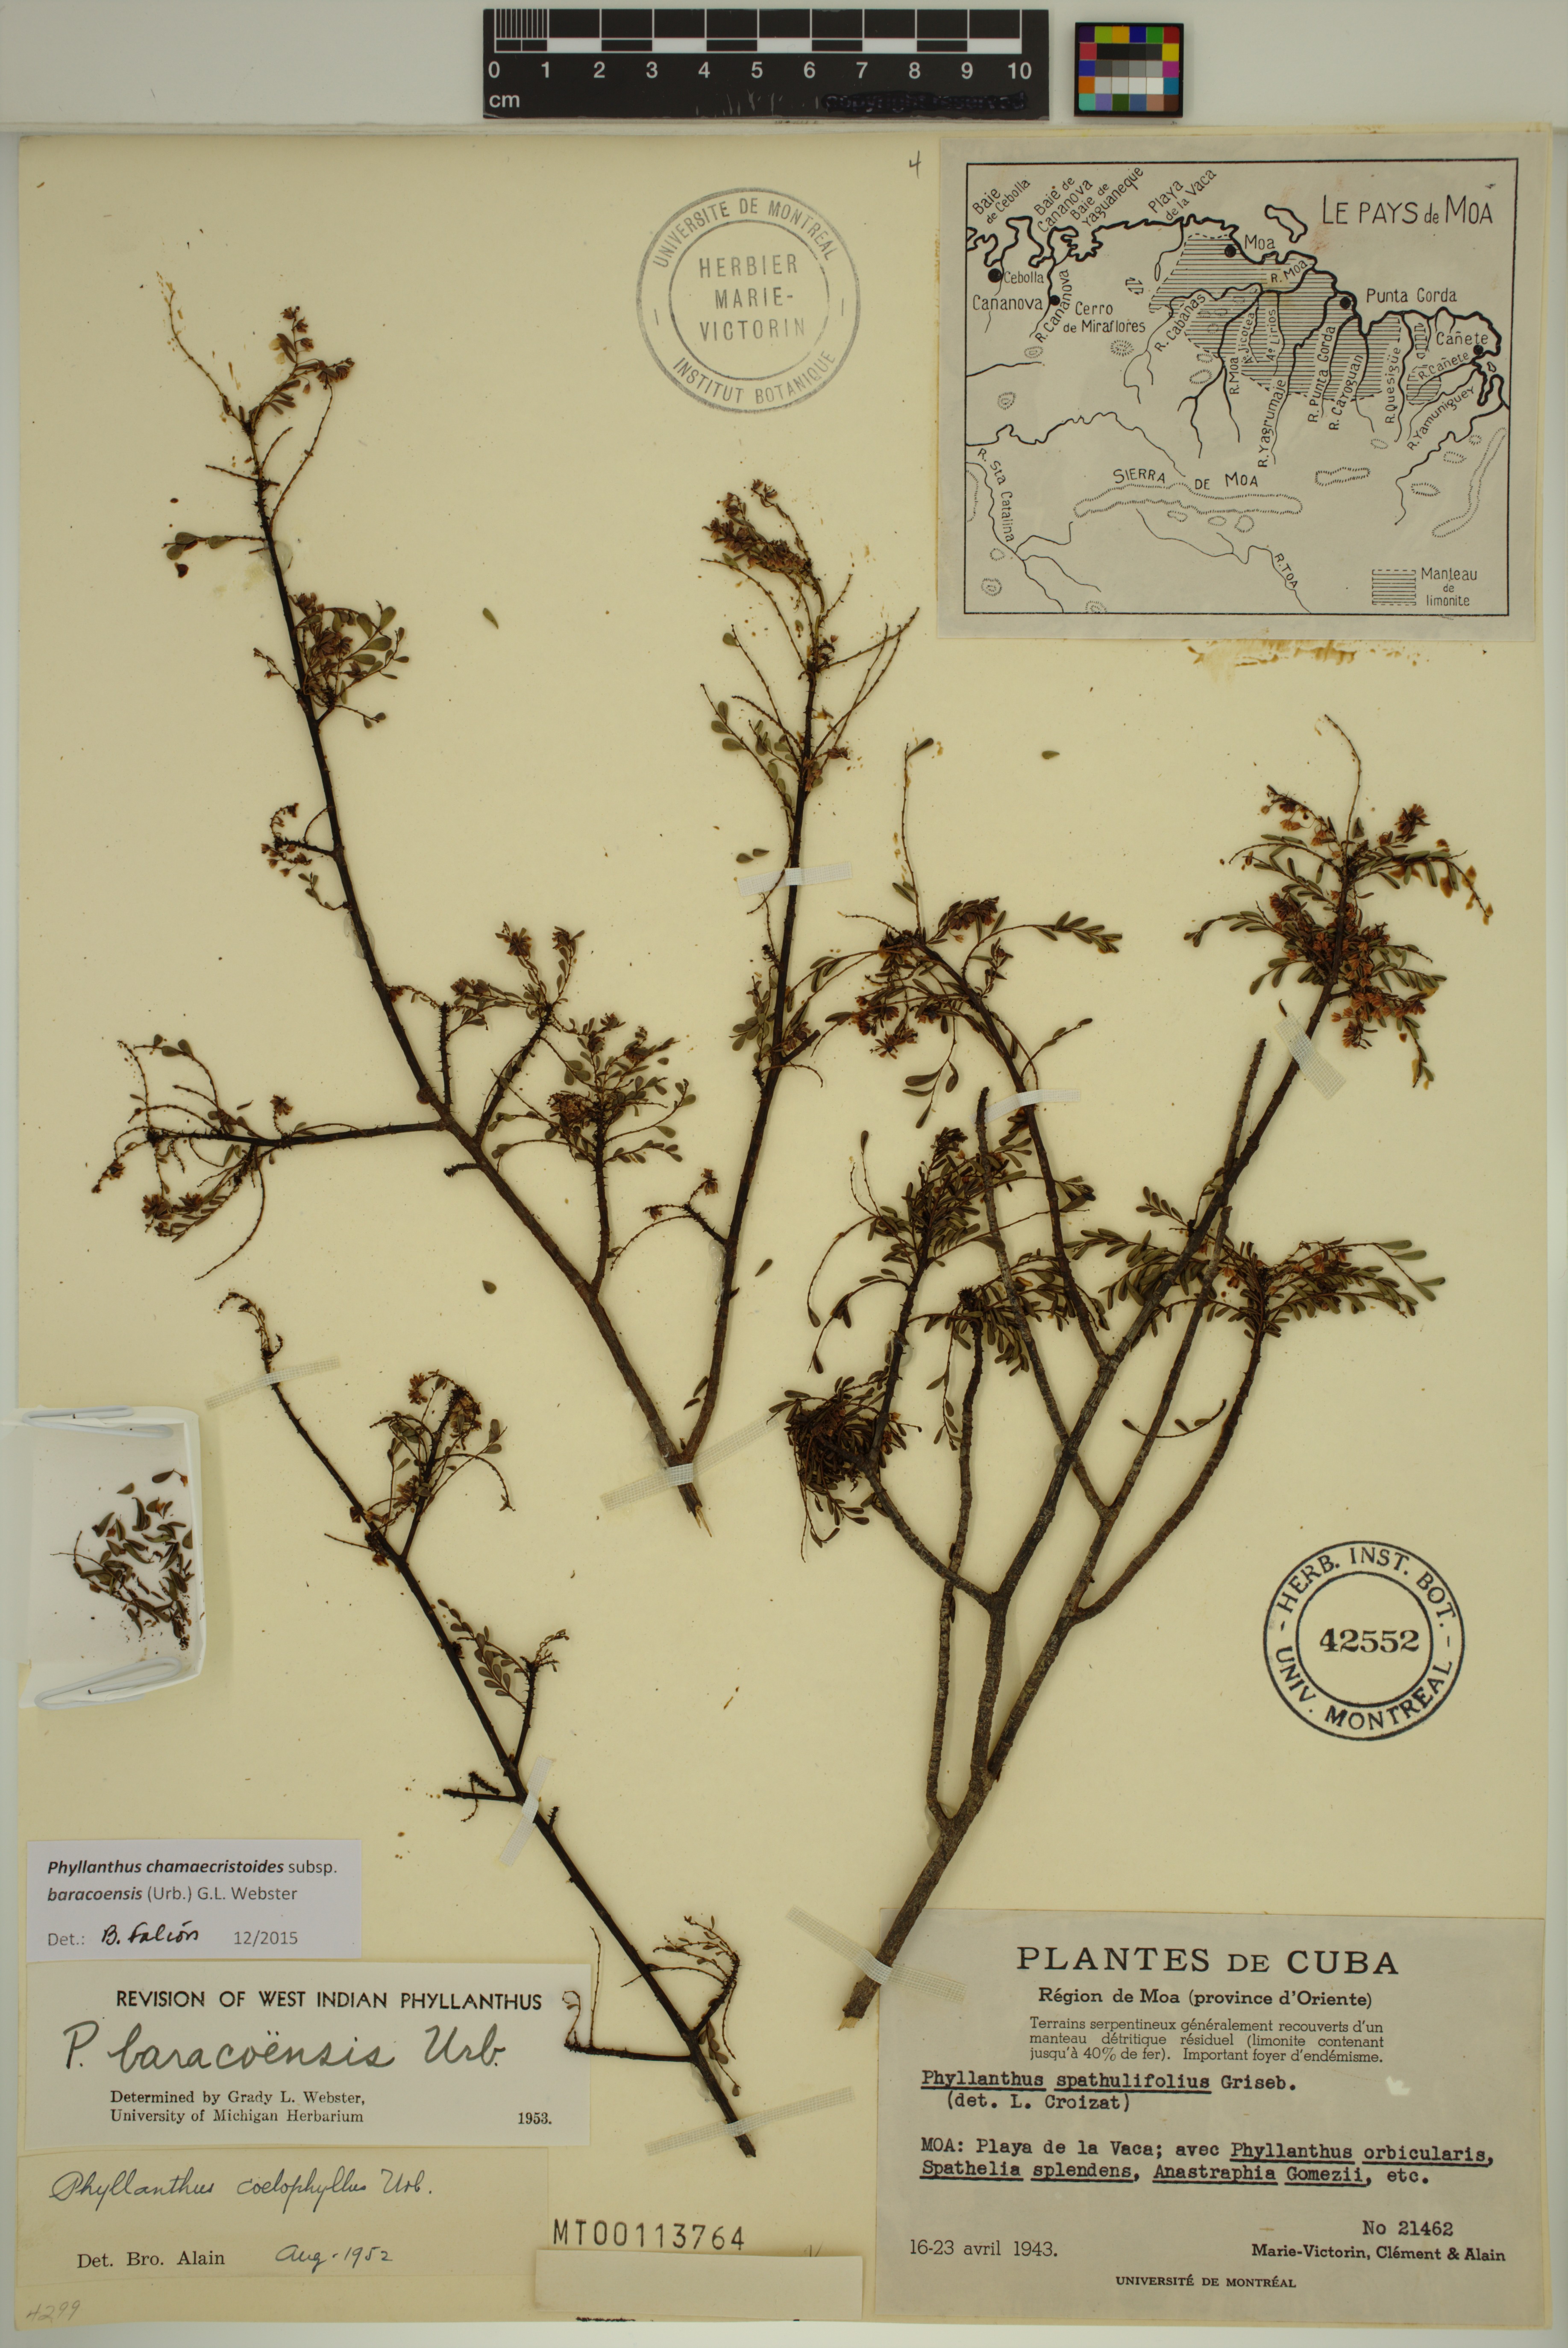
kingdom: Plantae
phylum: Tracheophyta
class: Magnoliopsida
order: Malpighiales
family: Phyllanthaceae
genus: Phyllanthus
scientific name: Phyllanthus chamaecristoides
